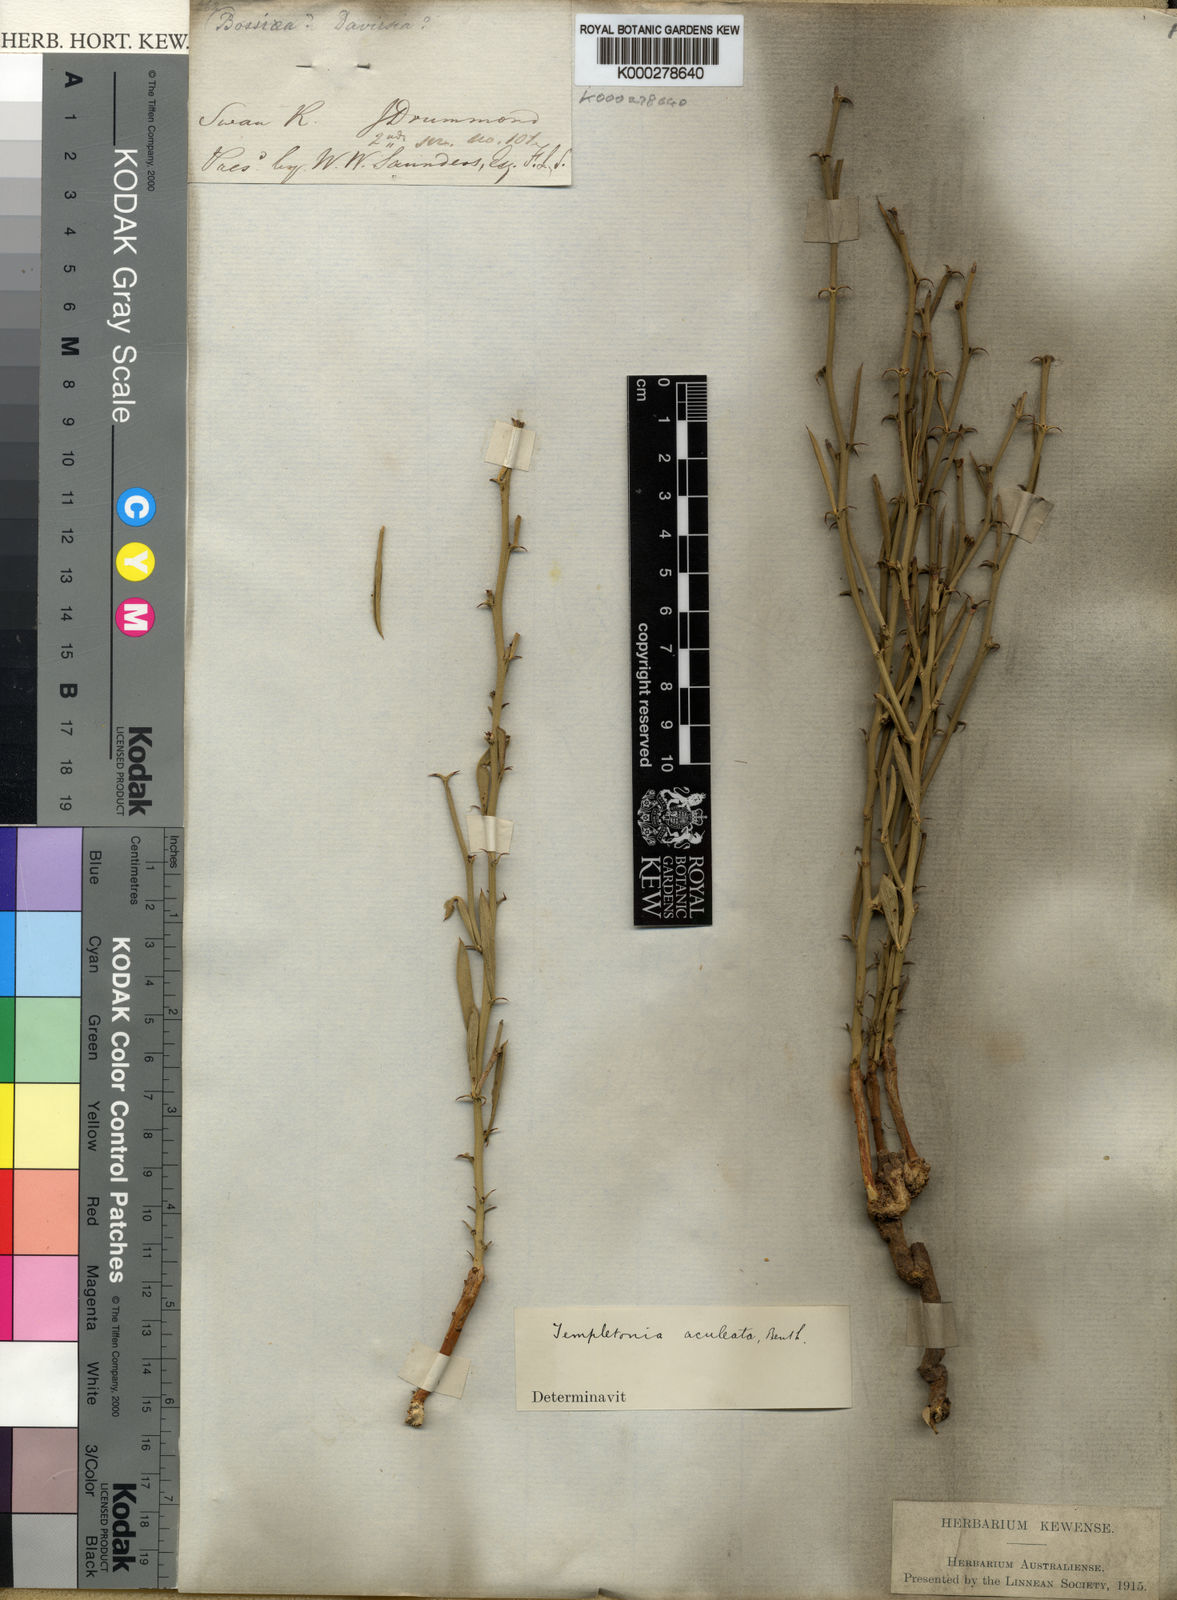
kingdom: Plantae
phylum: Tracheophyta
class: Magnoliopsida
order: Fabales
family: Fabaceae
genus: Templetonia
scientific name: Templetonia aculeata
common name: Spiny mallee pea
